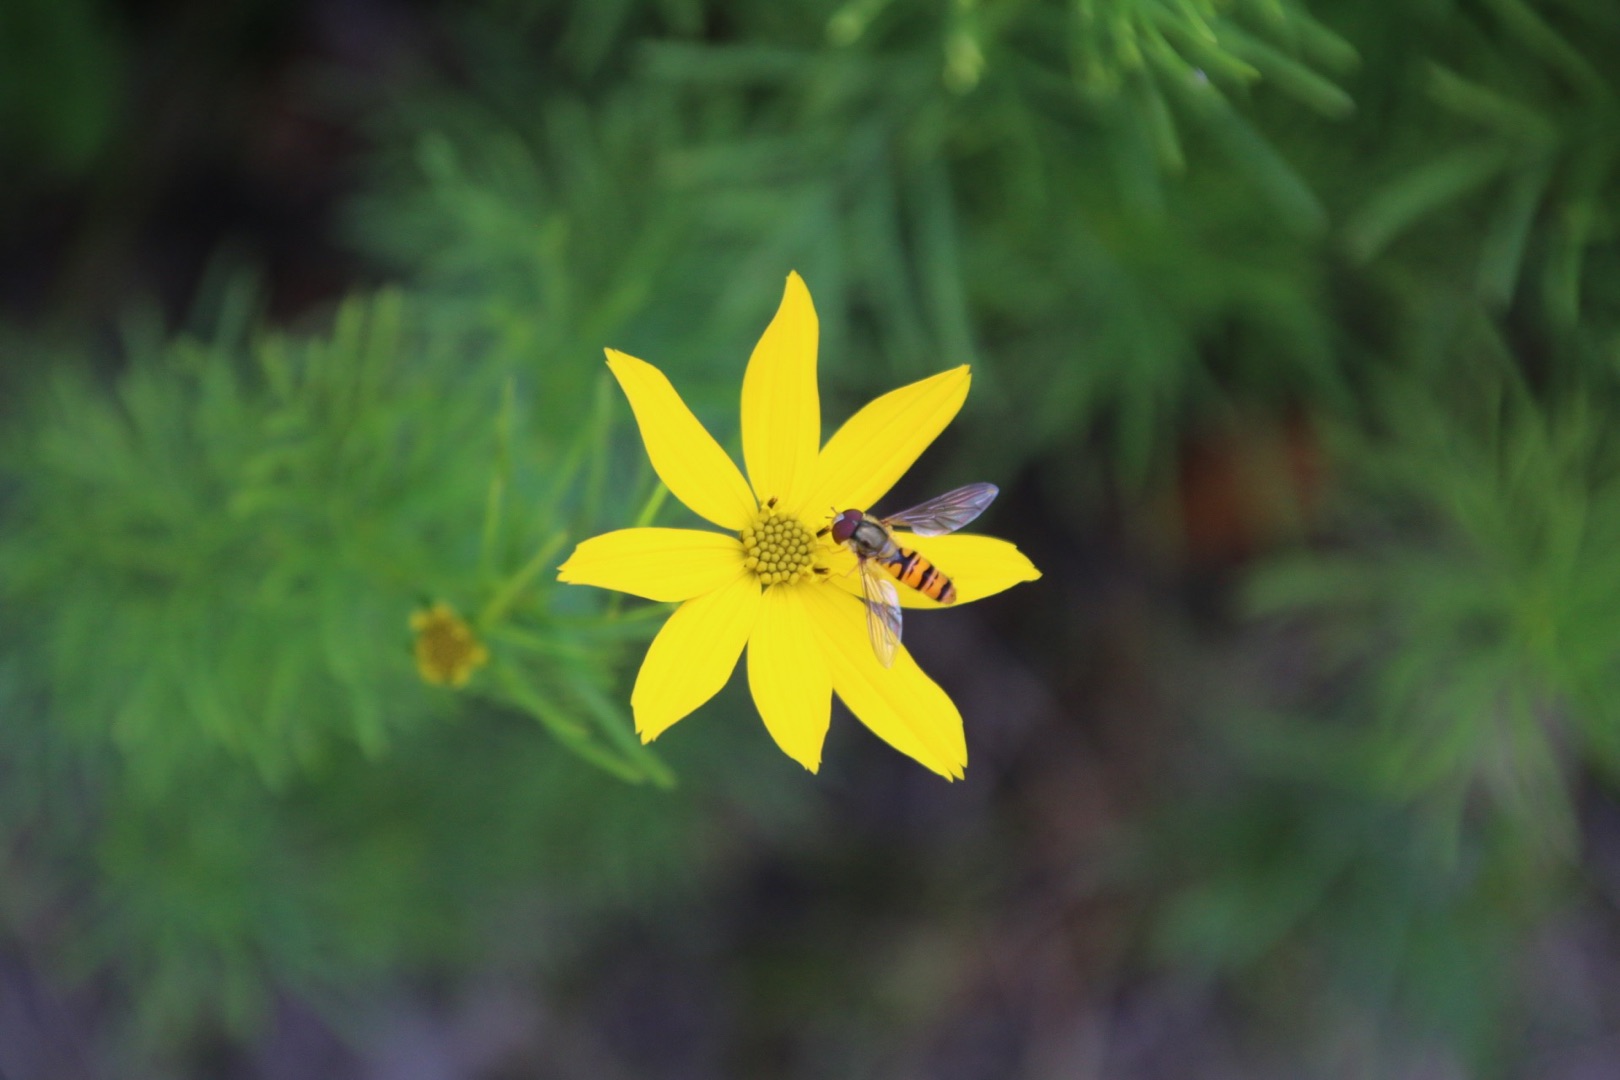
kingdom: Animalia
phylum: Arthropoda
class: Insecta
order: Diptera
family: Syrphidae
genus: Episyrphus
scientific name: Episyrphus balteatus
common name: Dobbeltbåndet svirreflue
